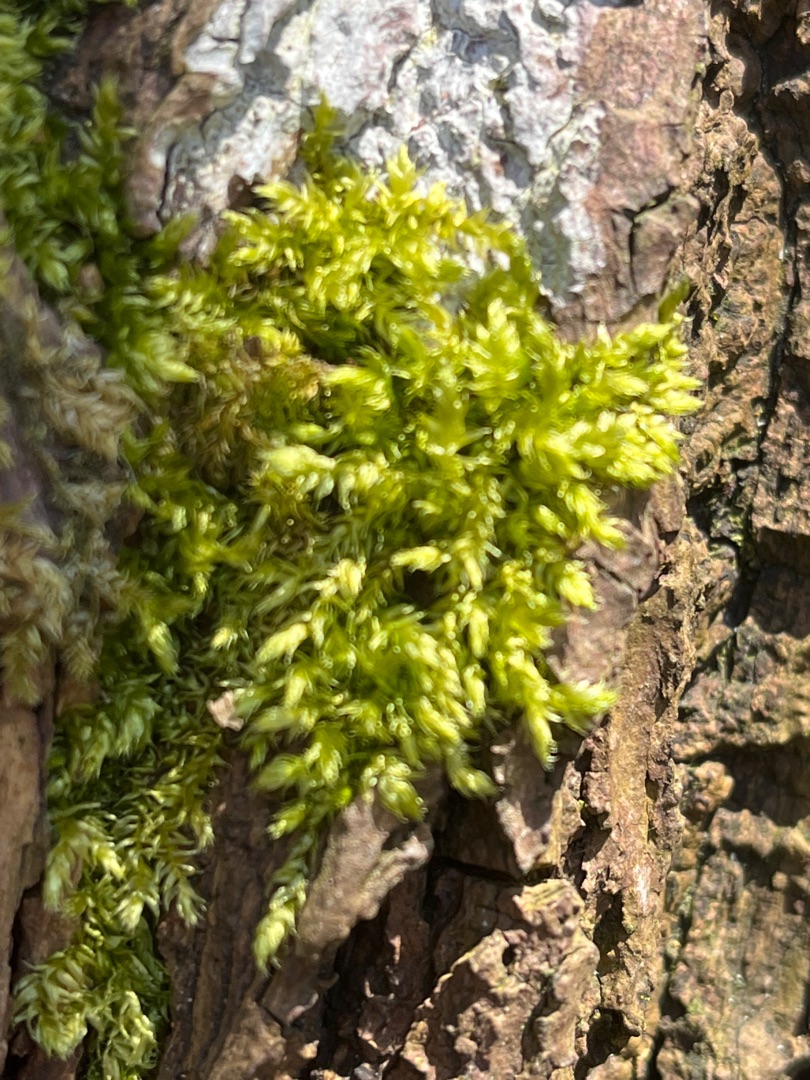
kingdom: Plantae
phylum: Bryophyta
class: Bryopsida
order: Hypnales
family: Brachytheciaceae
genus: Brachythecium
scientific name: Brachythecium rutabulum
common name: Almindelig kortkapsel
